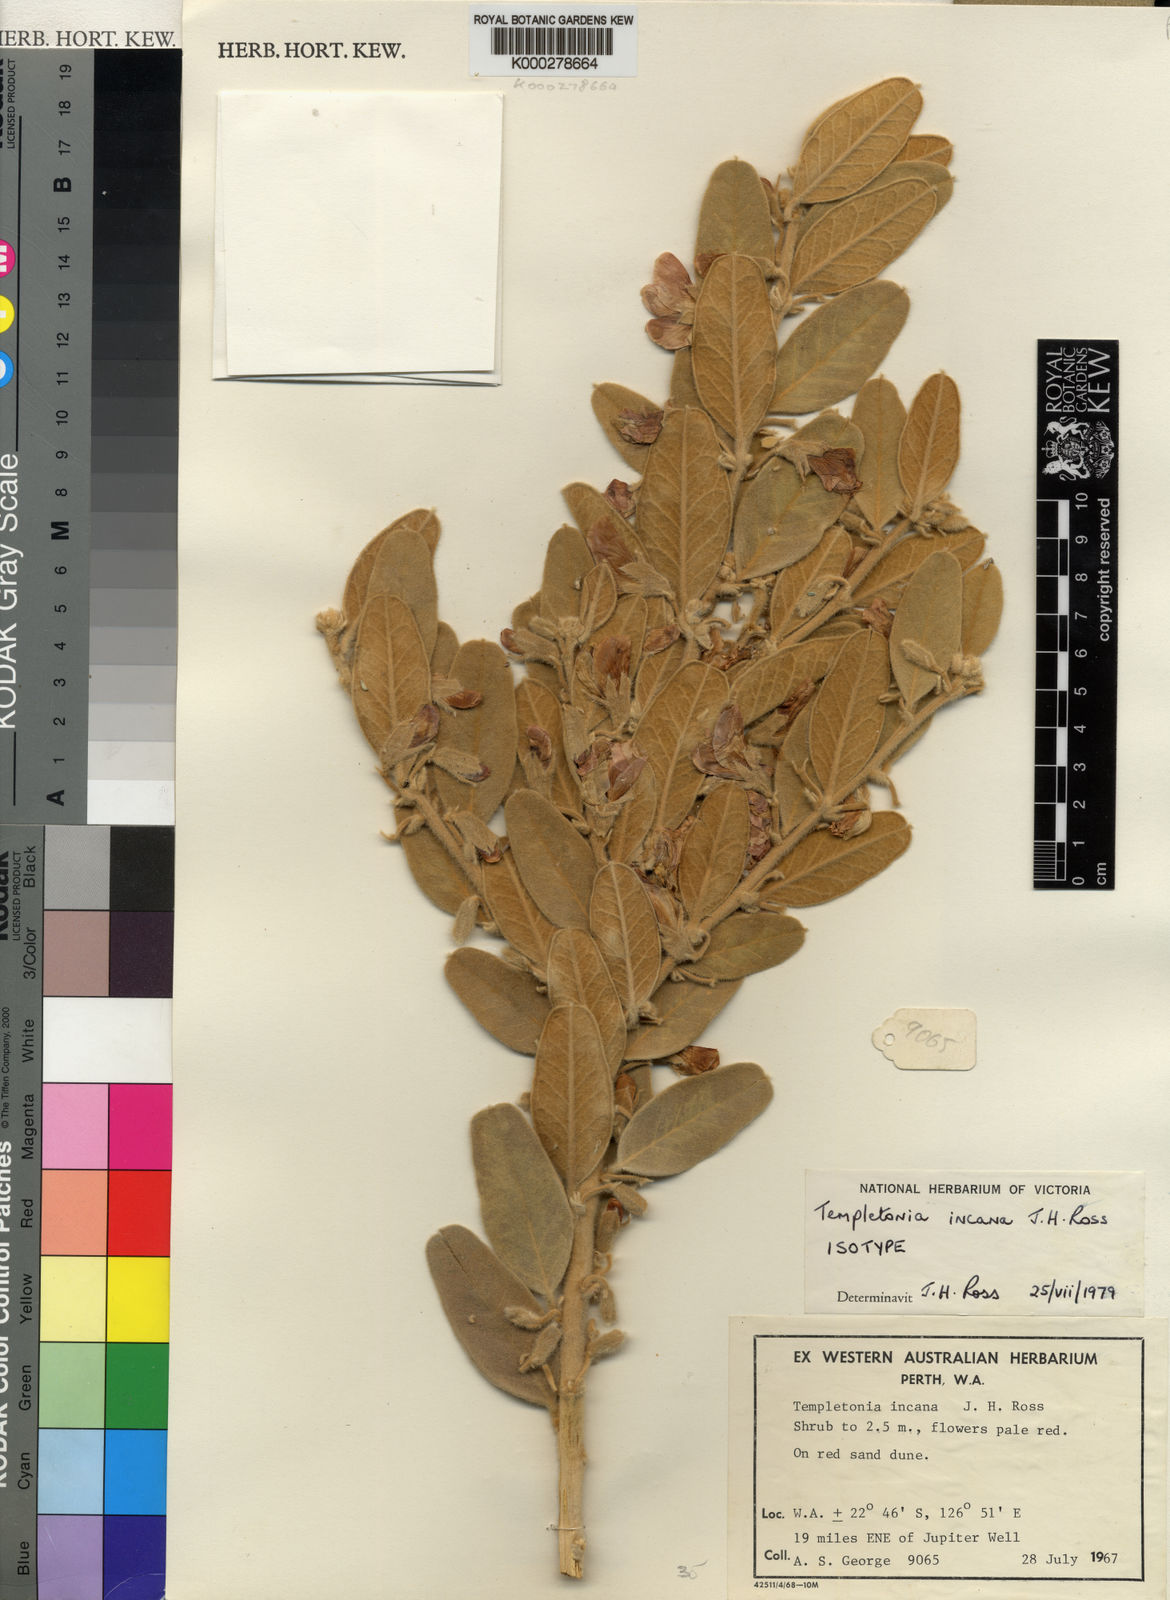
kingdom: Plantae
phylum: Tracheophyta
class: Magnoliopsida
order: Fabales
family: Fabaceae
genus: Thinicola
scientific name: Thinicola incana
